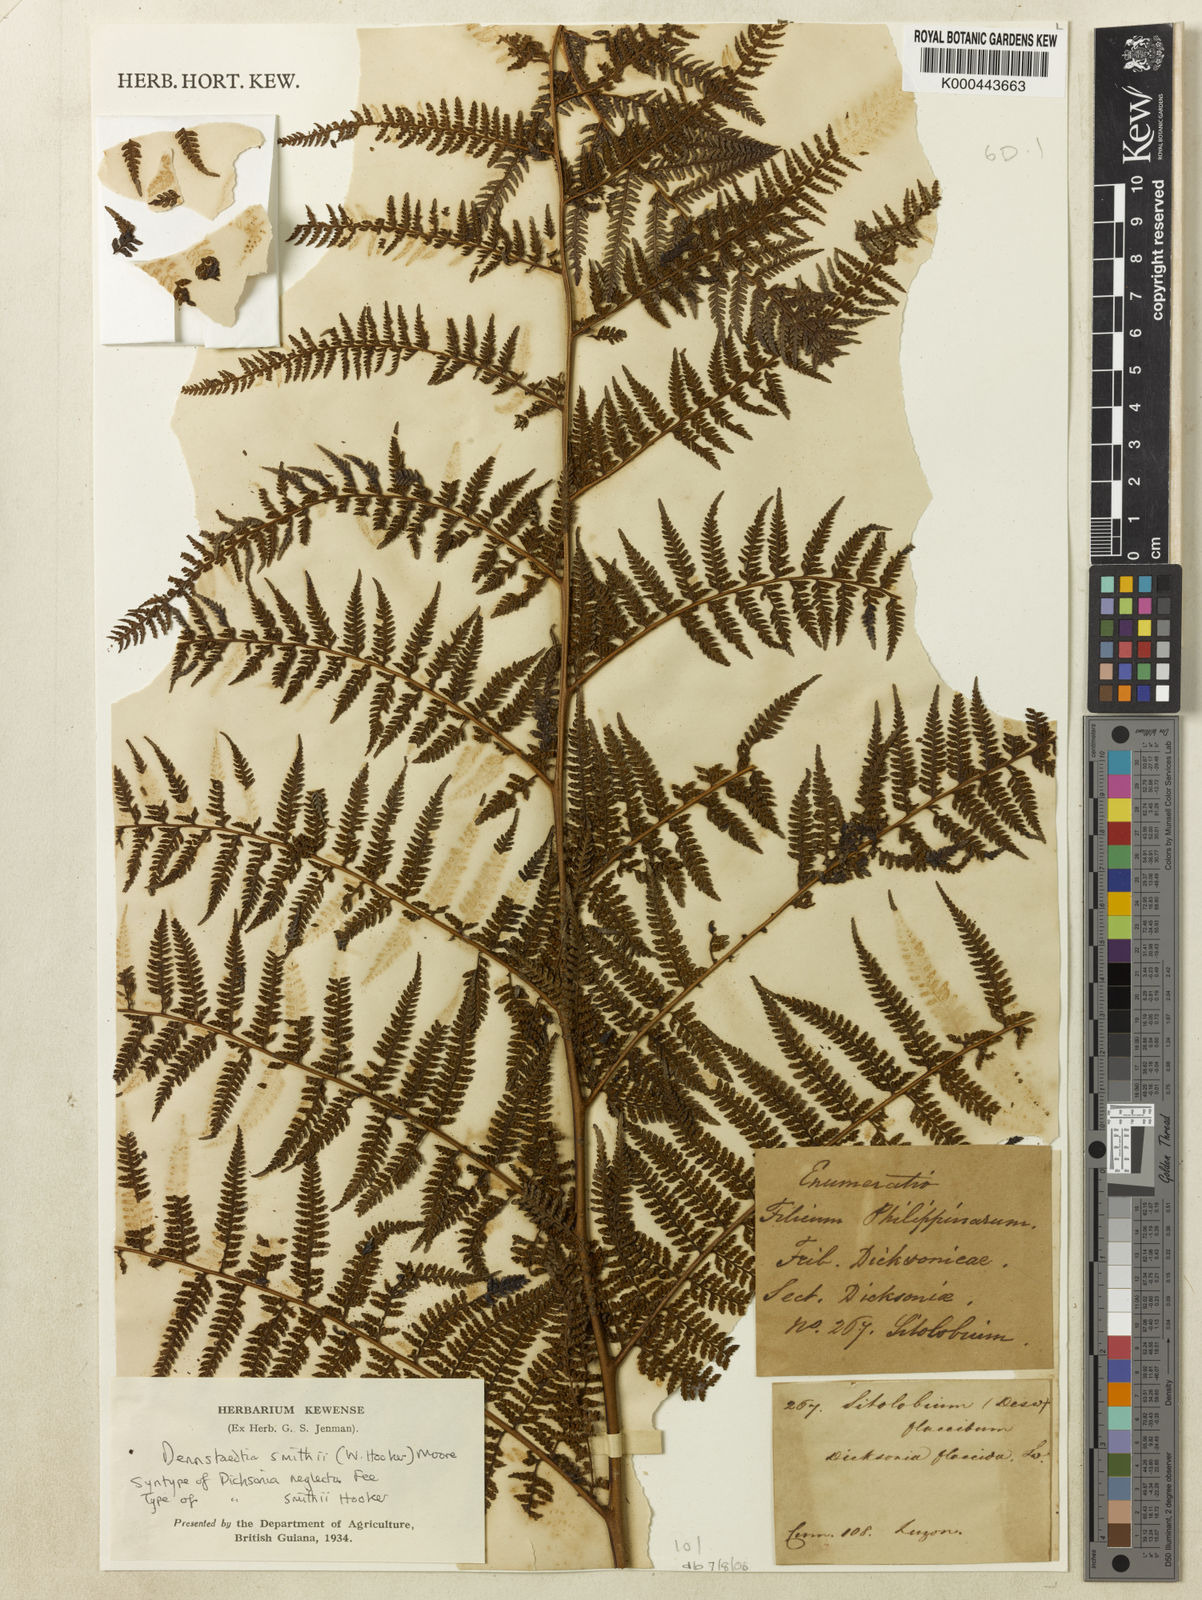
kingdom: Plantae
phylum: Tracheophyta
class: Polypodiopsida
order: Polypodiales
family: Dennstaedtiaceae
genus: Microlepia
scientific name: Microlepia smithii
